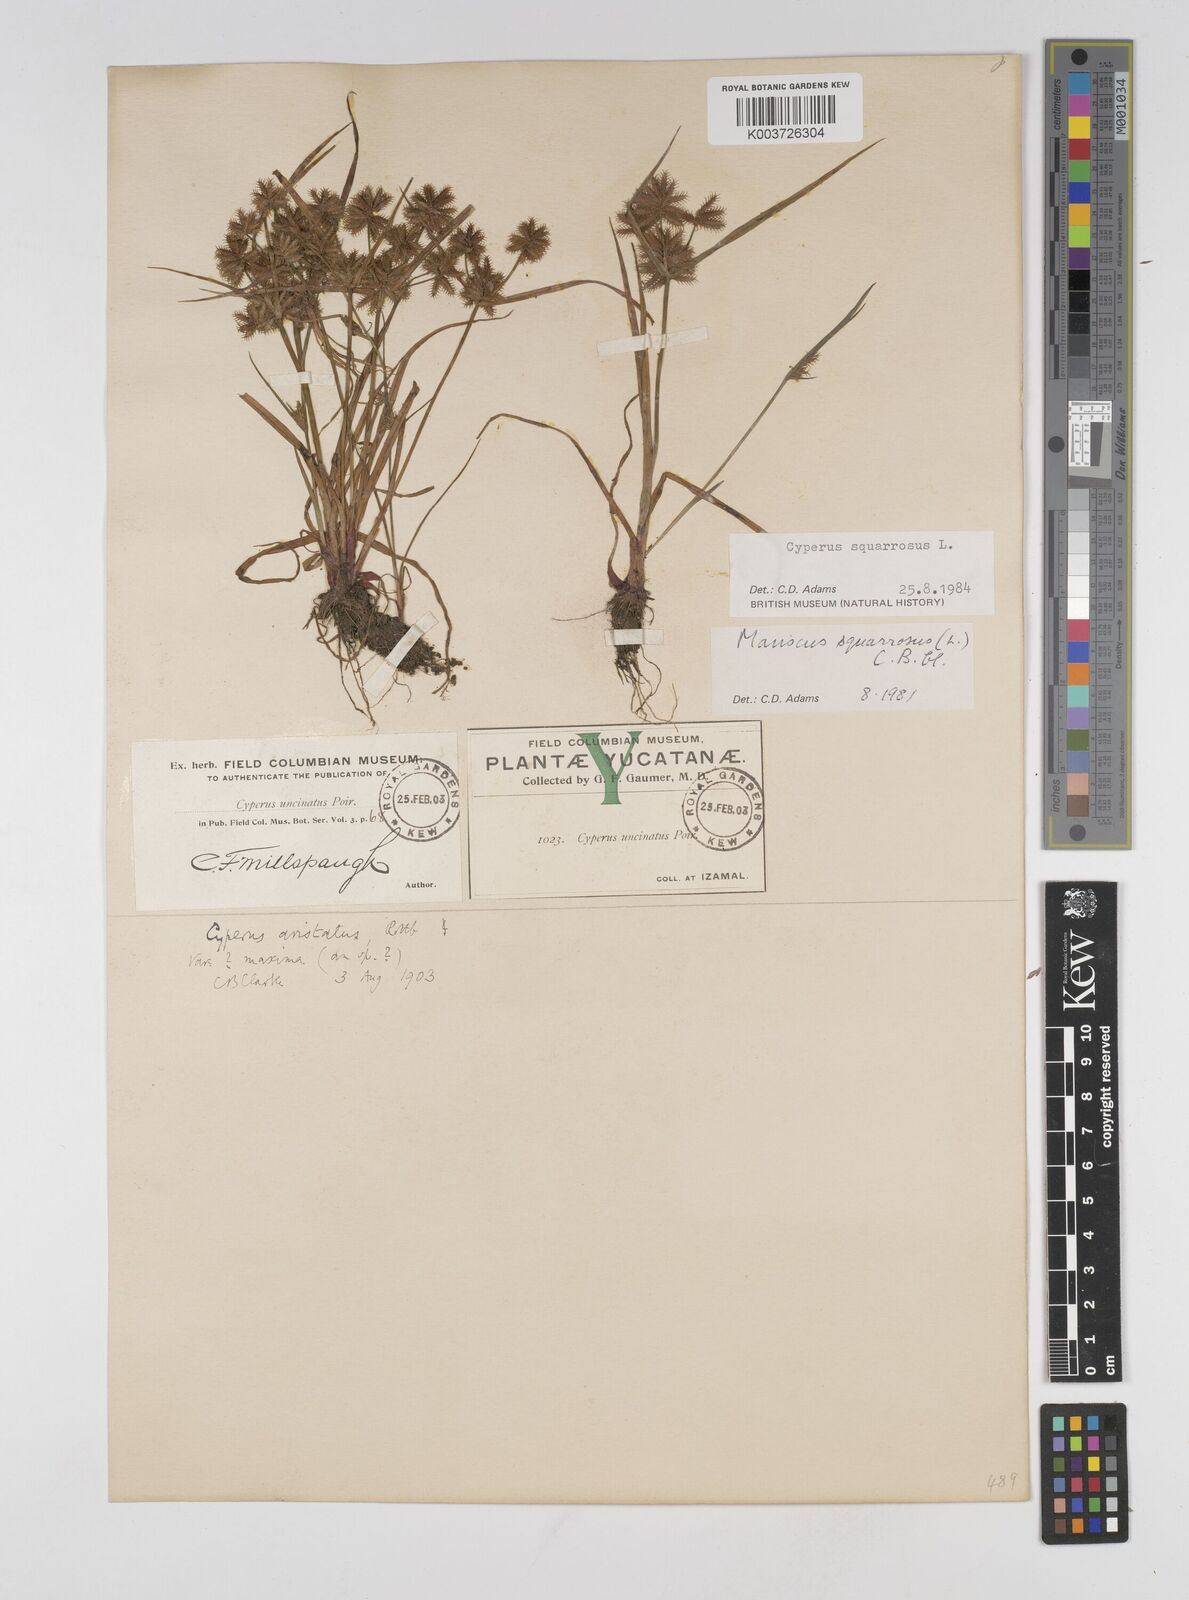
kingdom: Plantae
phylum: Tracheophyta
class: Liliopsida
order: Poales
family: Cyperaceae
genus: Cyperus
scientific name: Cyperus squarrosus
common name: Awned cyperus
